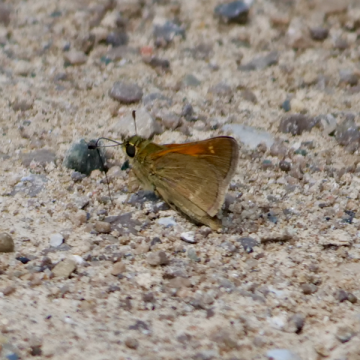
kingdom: Animalia
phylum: Arthropoda
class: Insecta
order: Lepidoptera
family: Hesperiidae
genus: Polites
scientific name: Polites themistocles
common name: Tawny-edged Skipper
